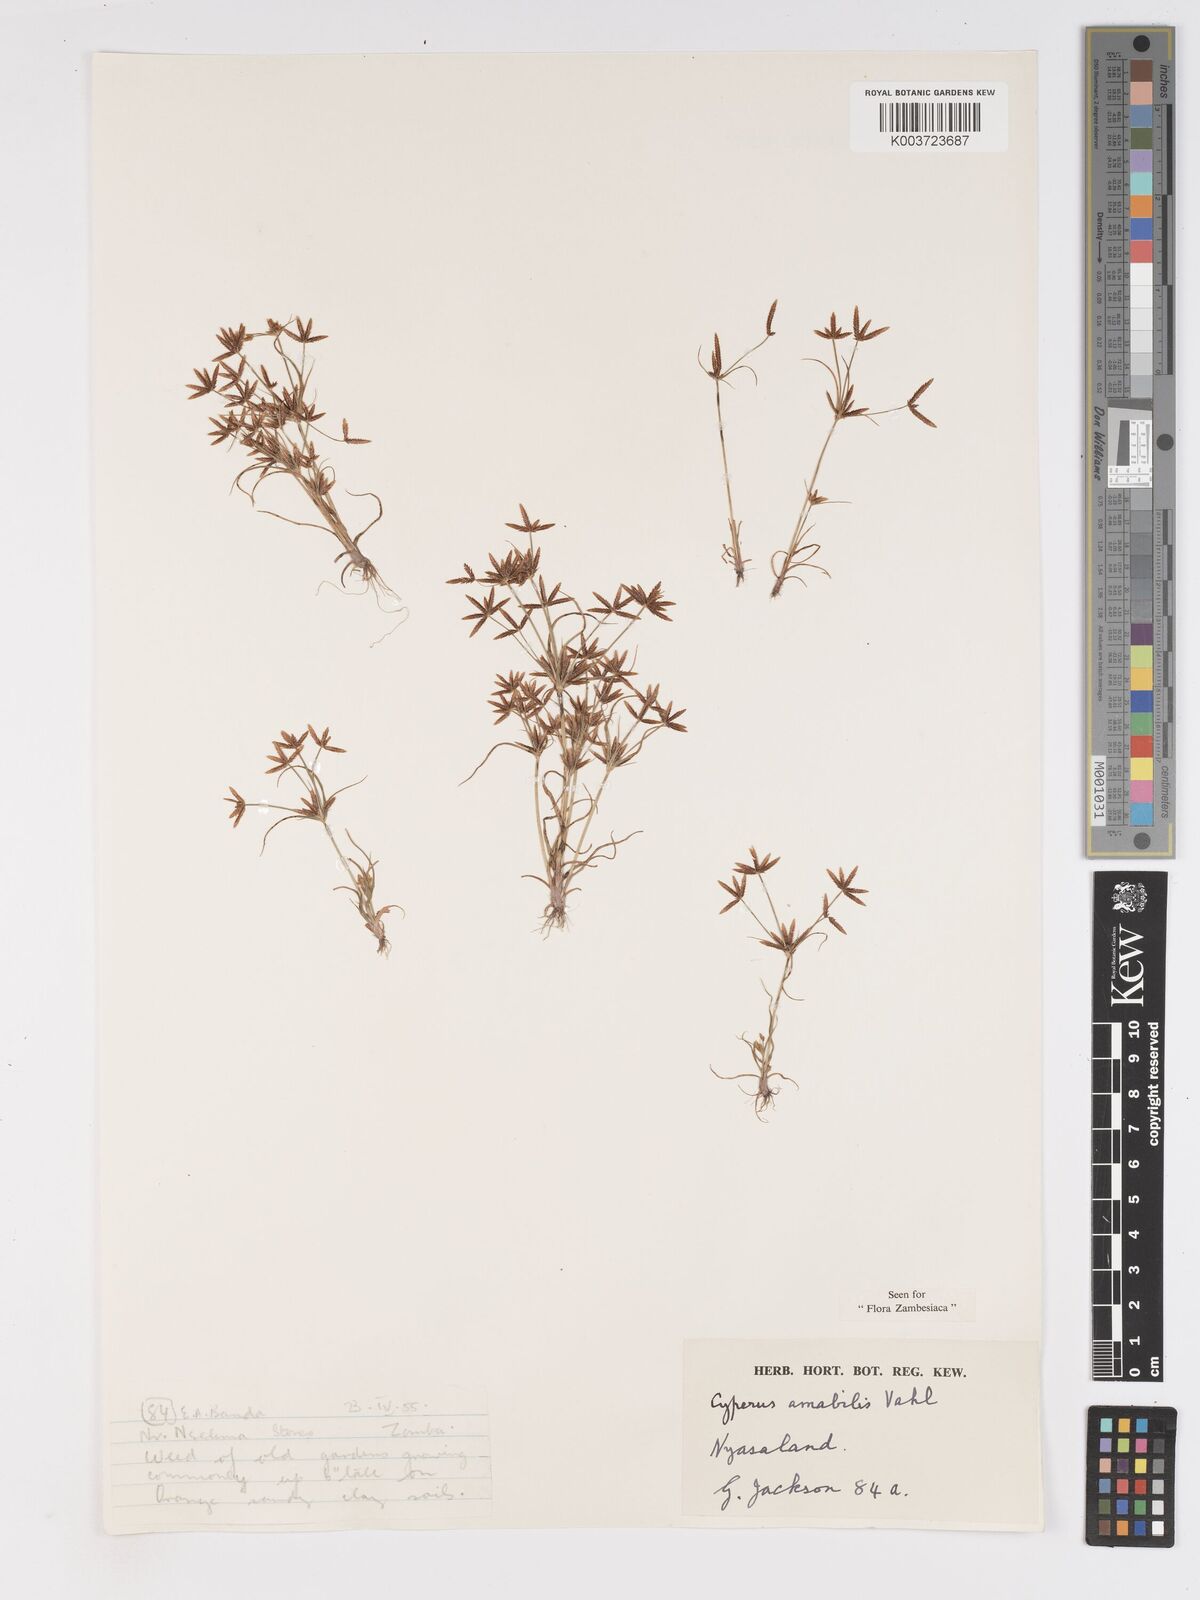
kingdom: Plantae
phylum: Tracheophyta
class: Liliopsida
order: Poales
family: Cyperaceae
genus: Cyperus
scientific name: Cyperus amabilis
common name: Foothill flat sedge
